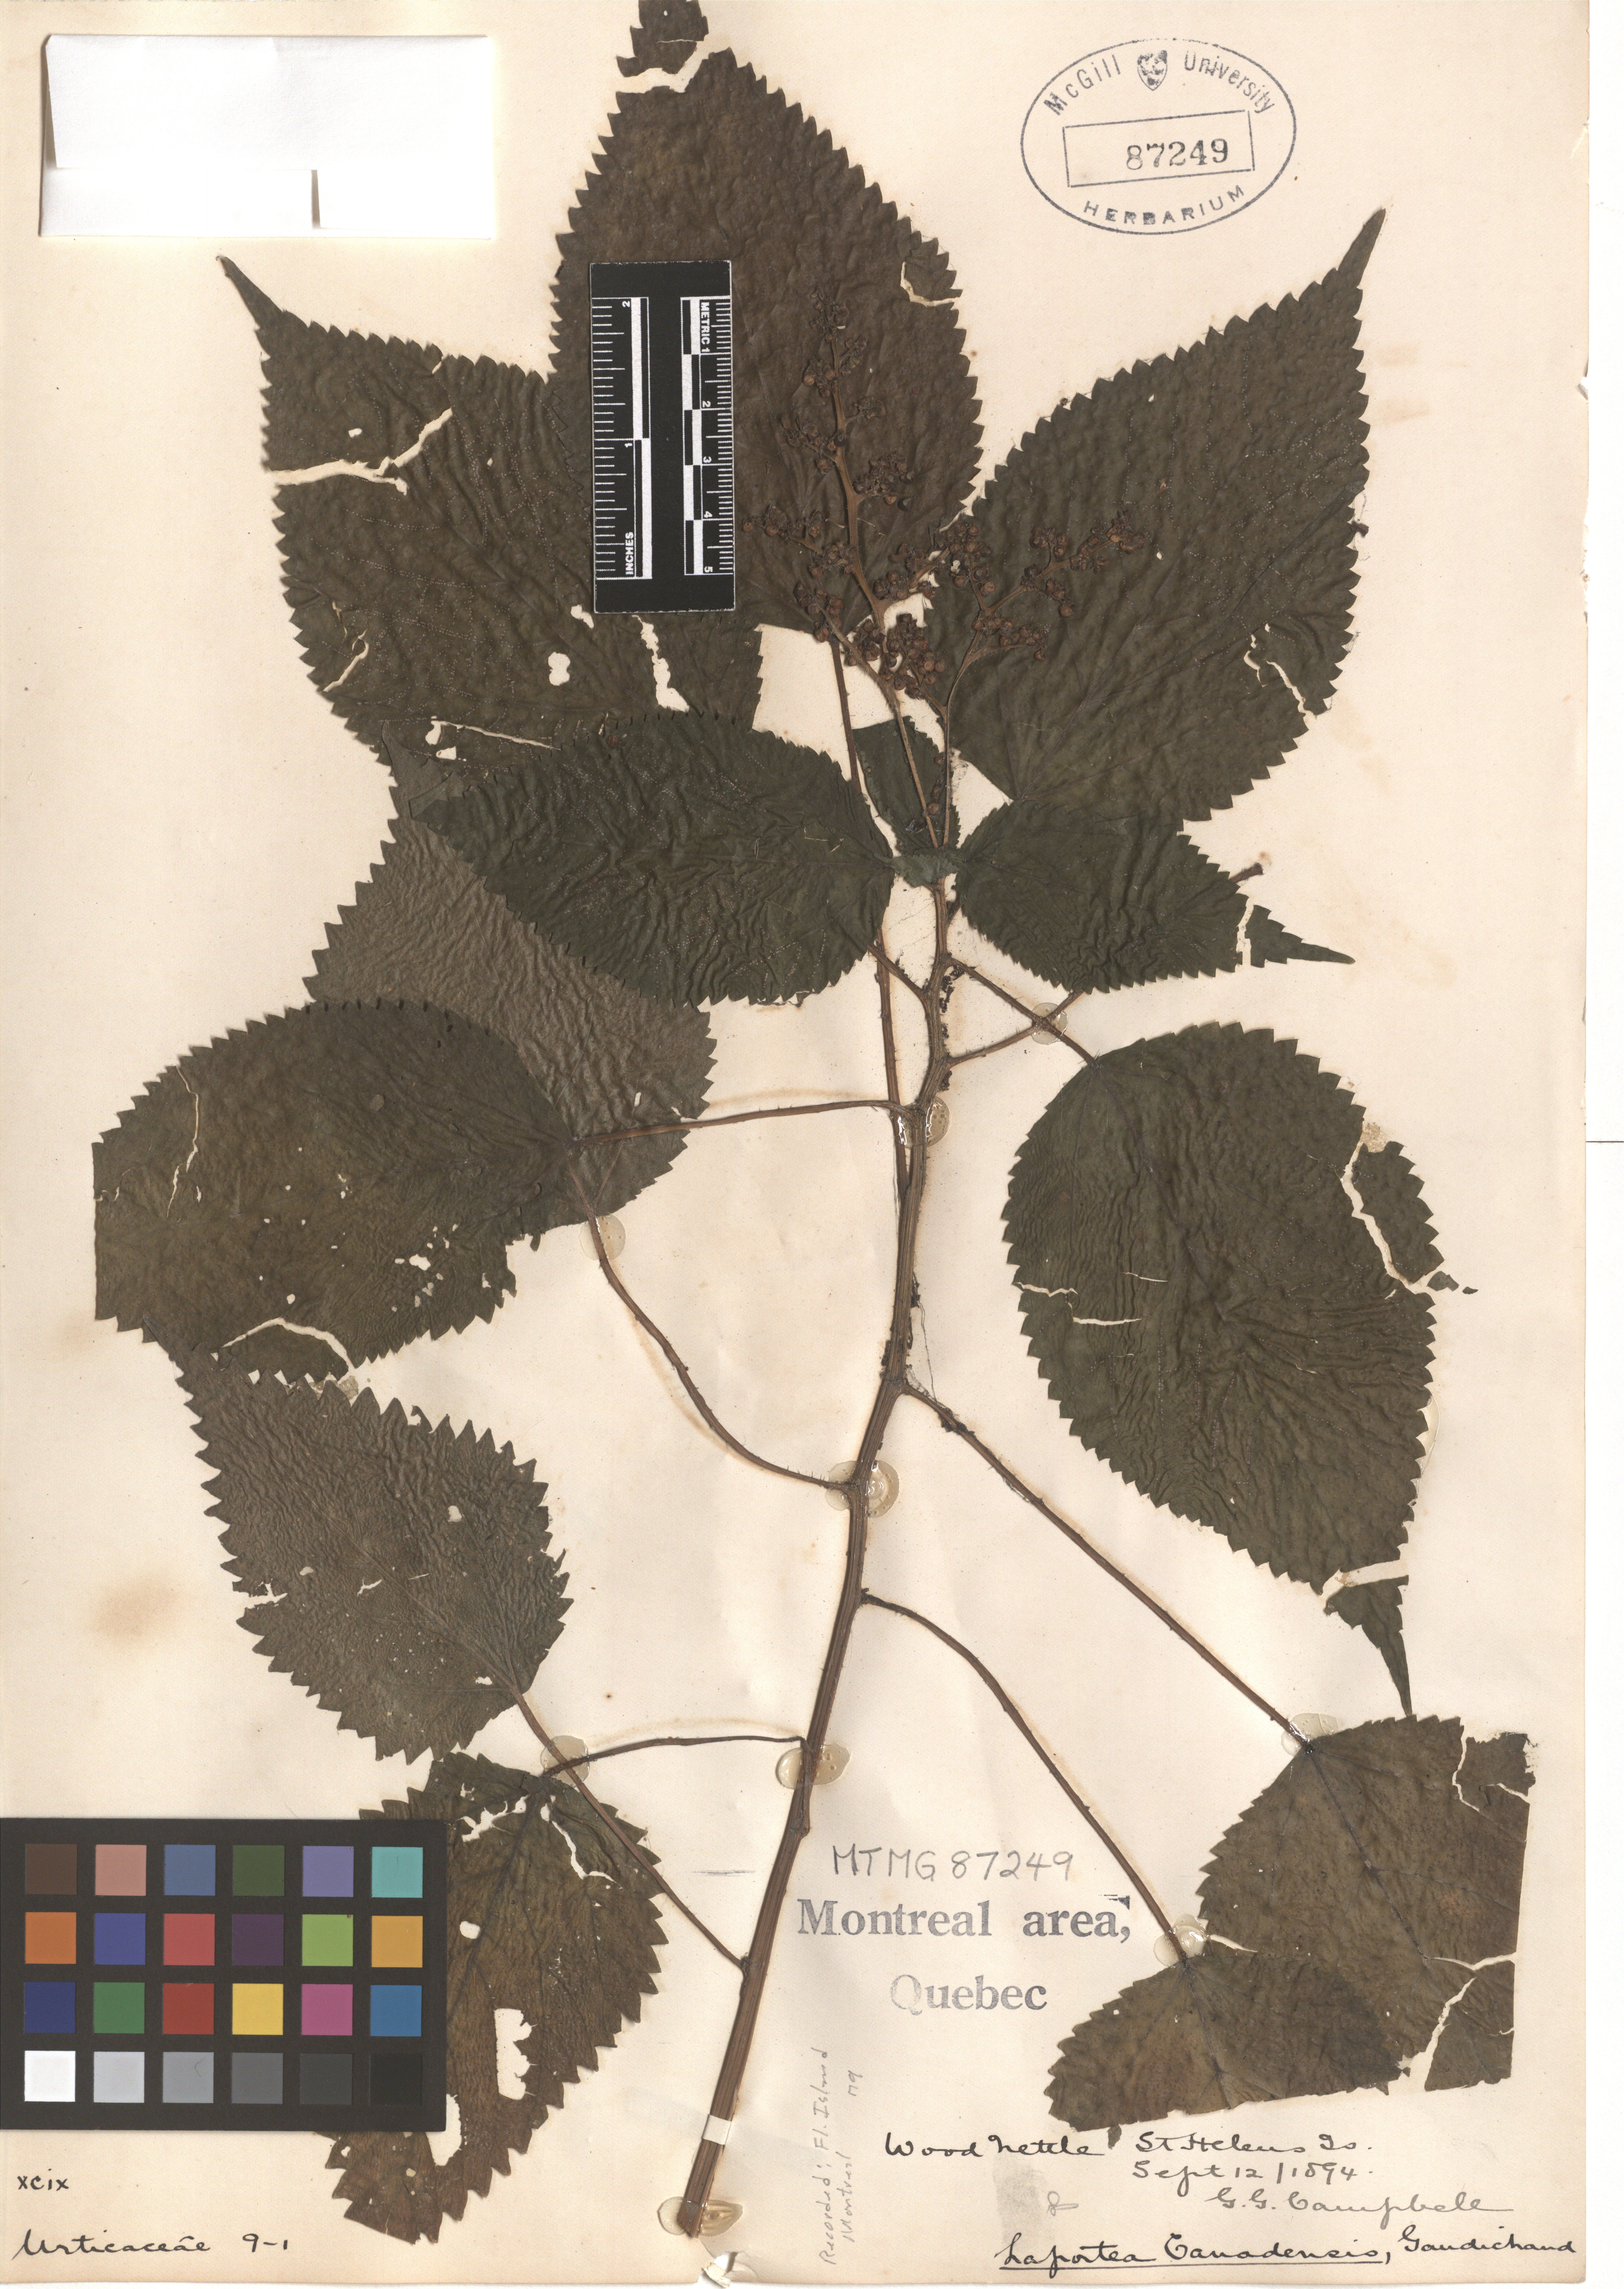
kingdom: Plantae
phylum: Tracheophyta
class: Magnoliopsida
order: Rosales
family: Urticaceae
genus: Laportea
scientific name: Laportea canadensis
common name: Canada nettle
